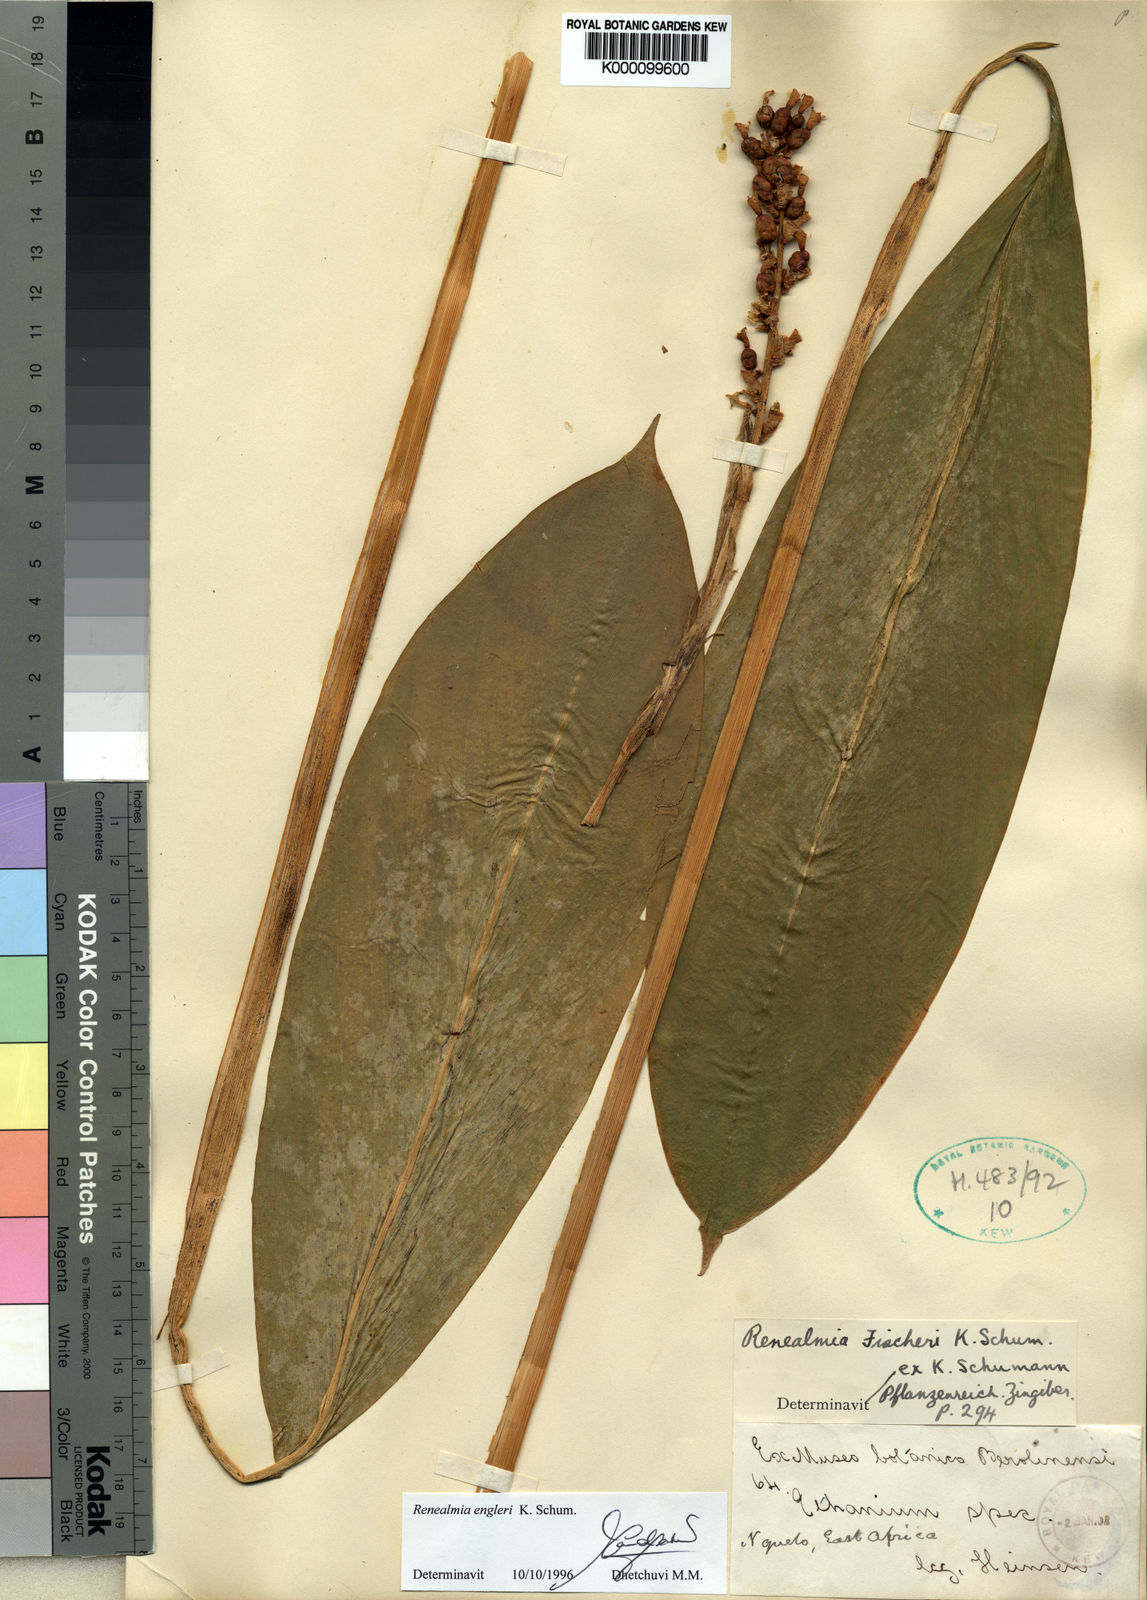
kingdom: Plantae
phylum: Tracheophyta
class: Liliopsida
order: Zingiberales
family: Zingiberaceae
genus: Renealmia
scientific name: Renealmia engleri
